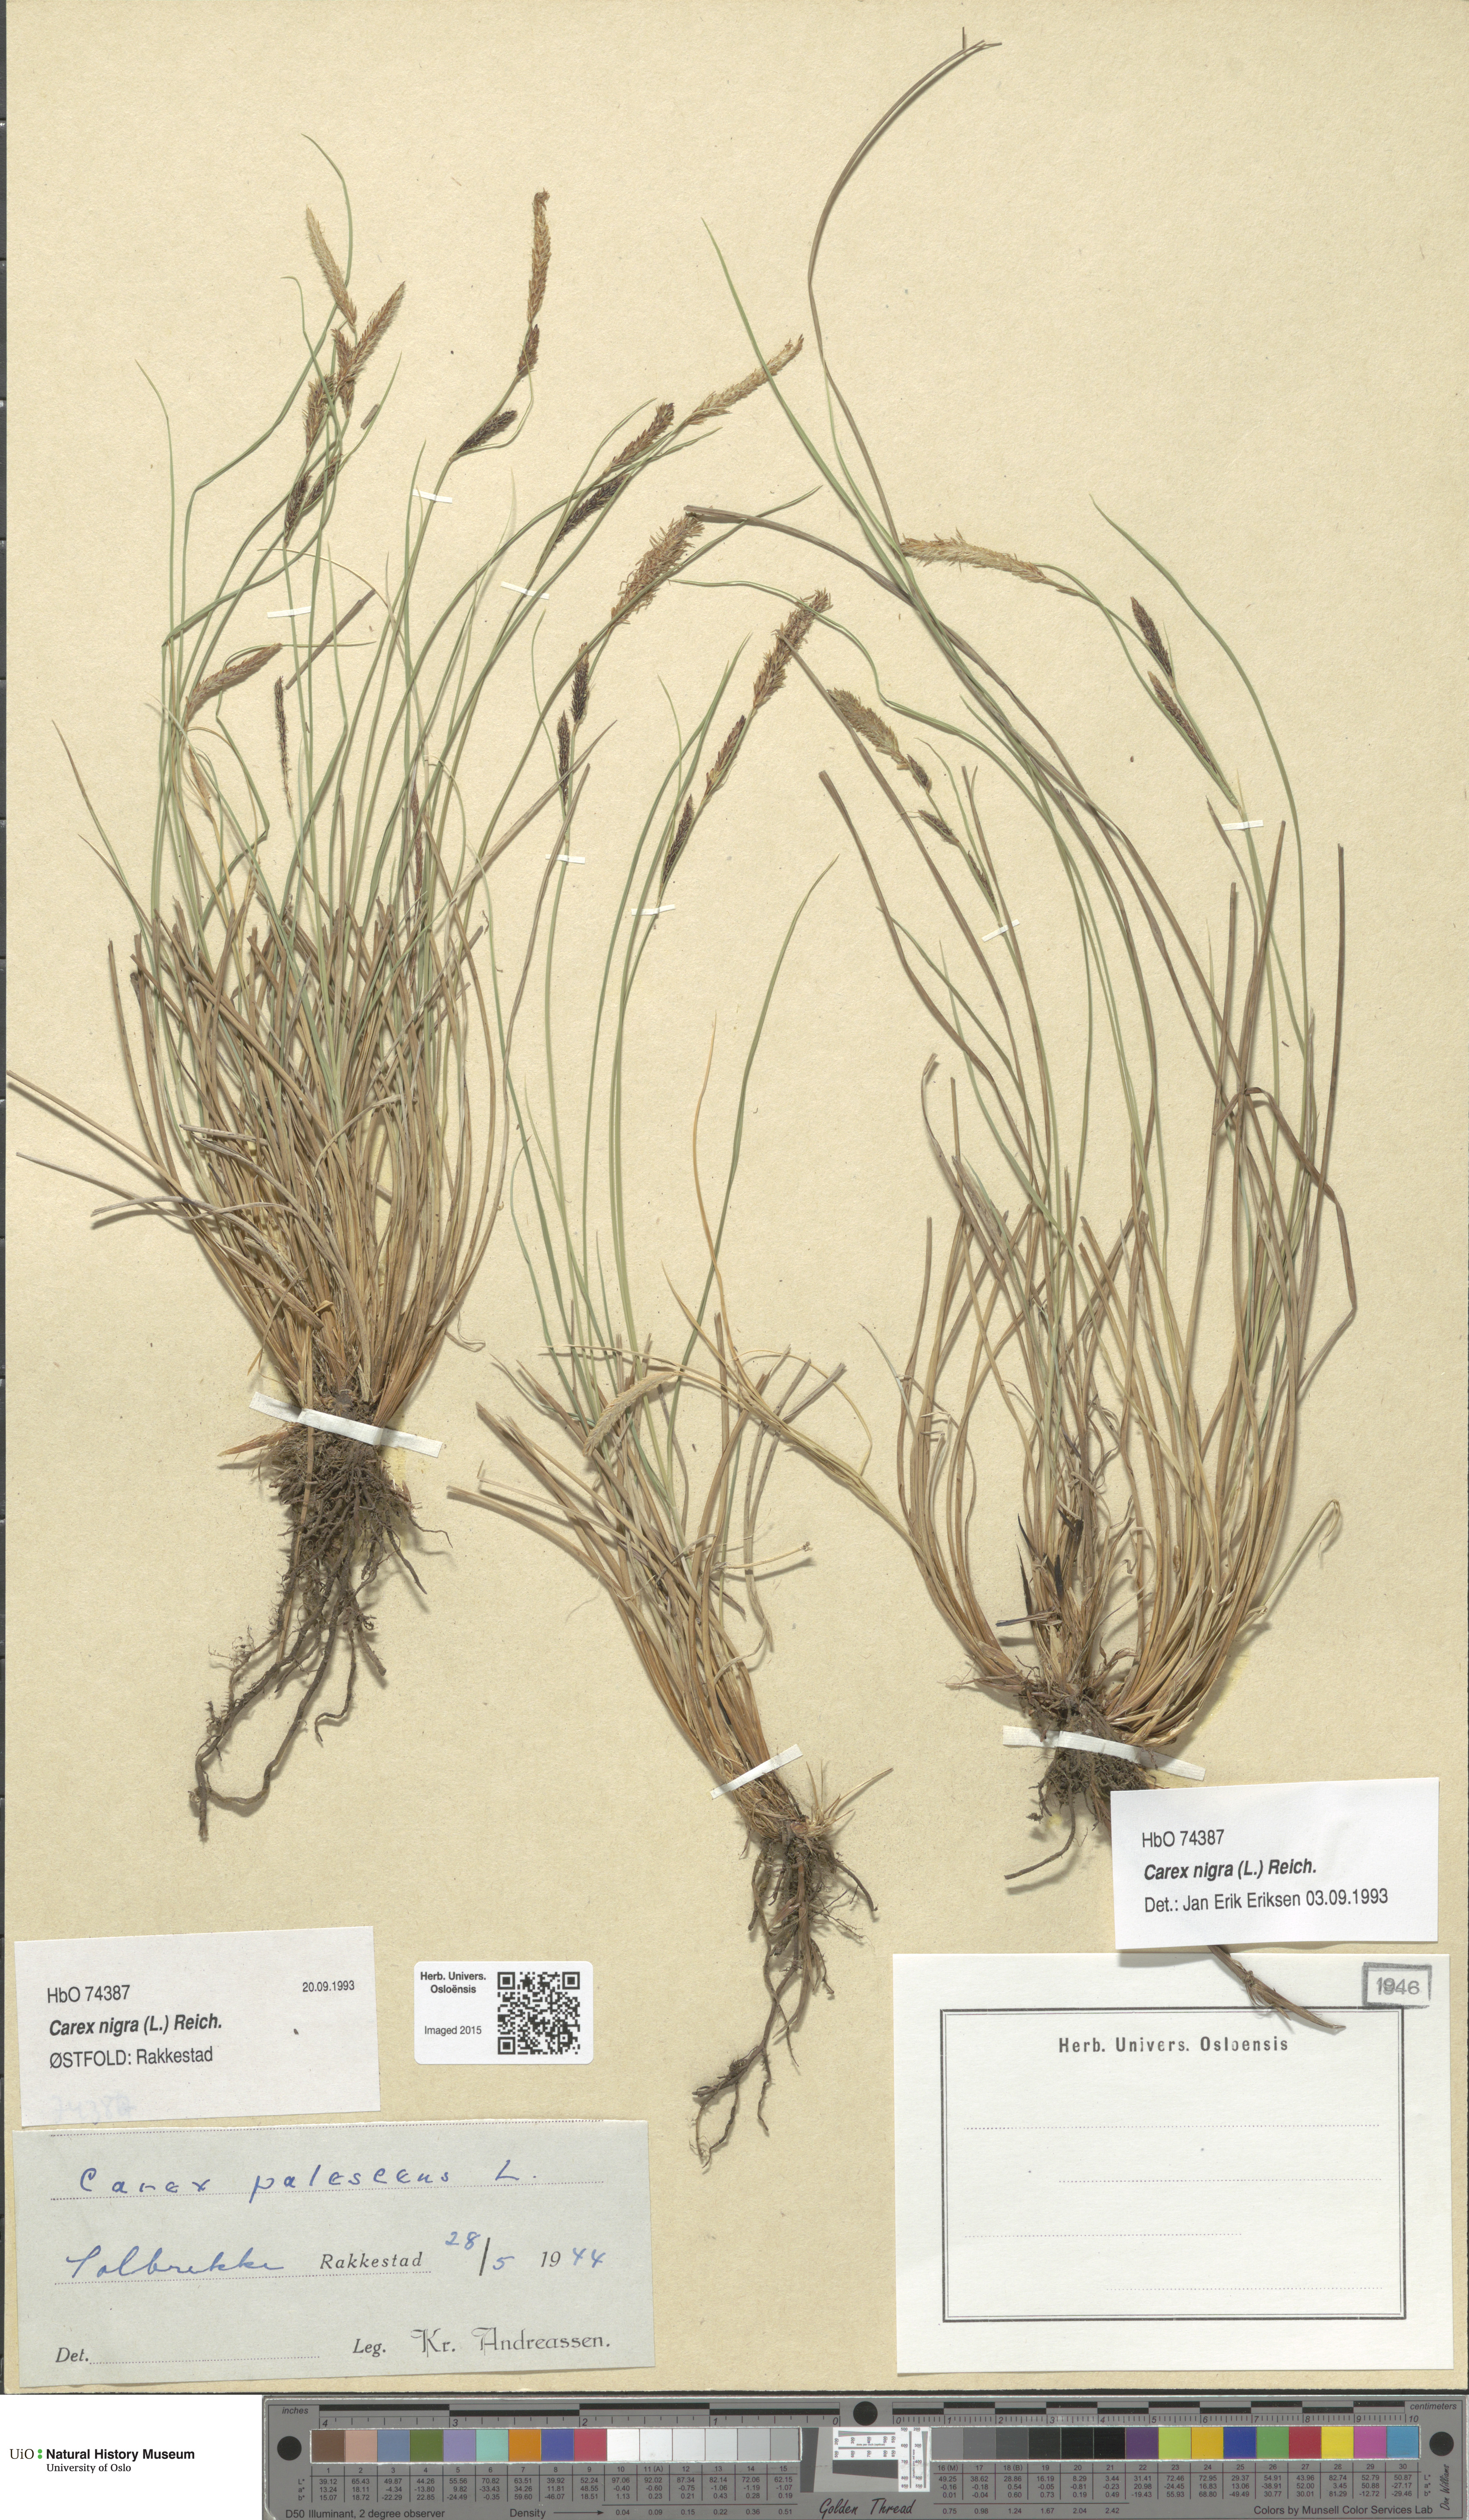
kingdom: Plantae
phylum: Tracheophyta
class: Liliopsida
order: Poales
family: Cyperaceae
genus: Carex
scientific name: Carex nigra
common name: Common sedge
